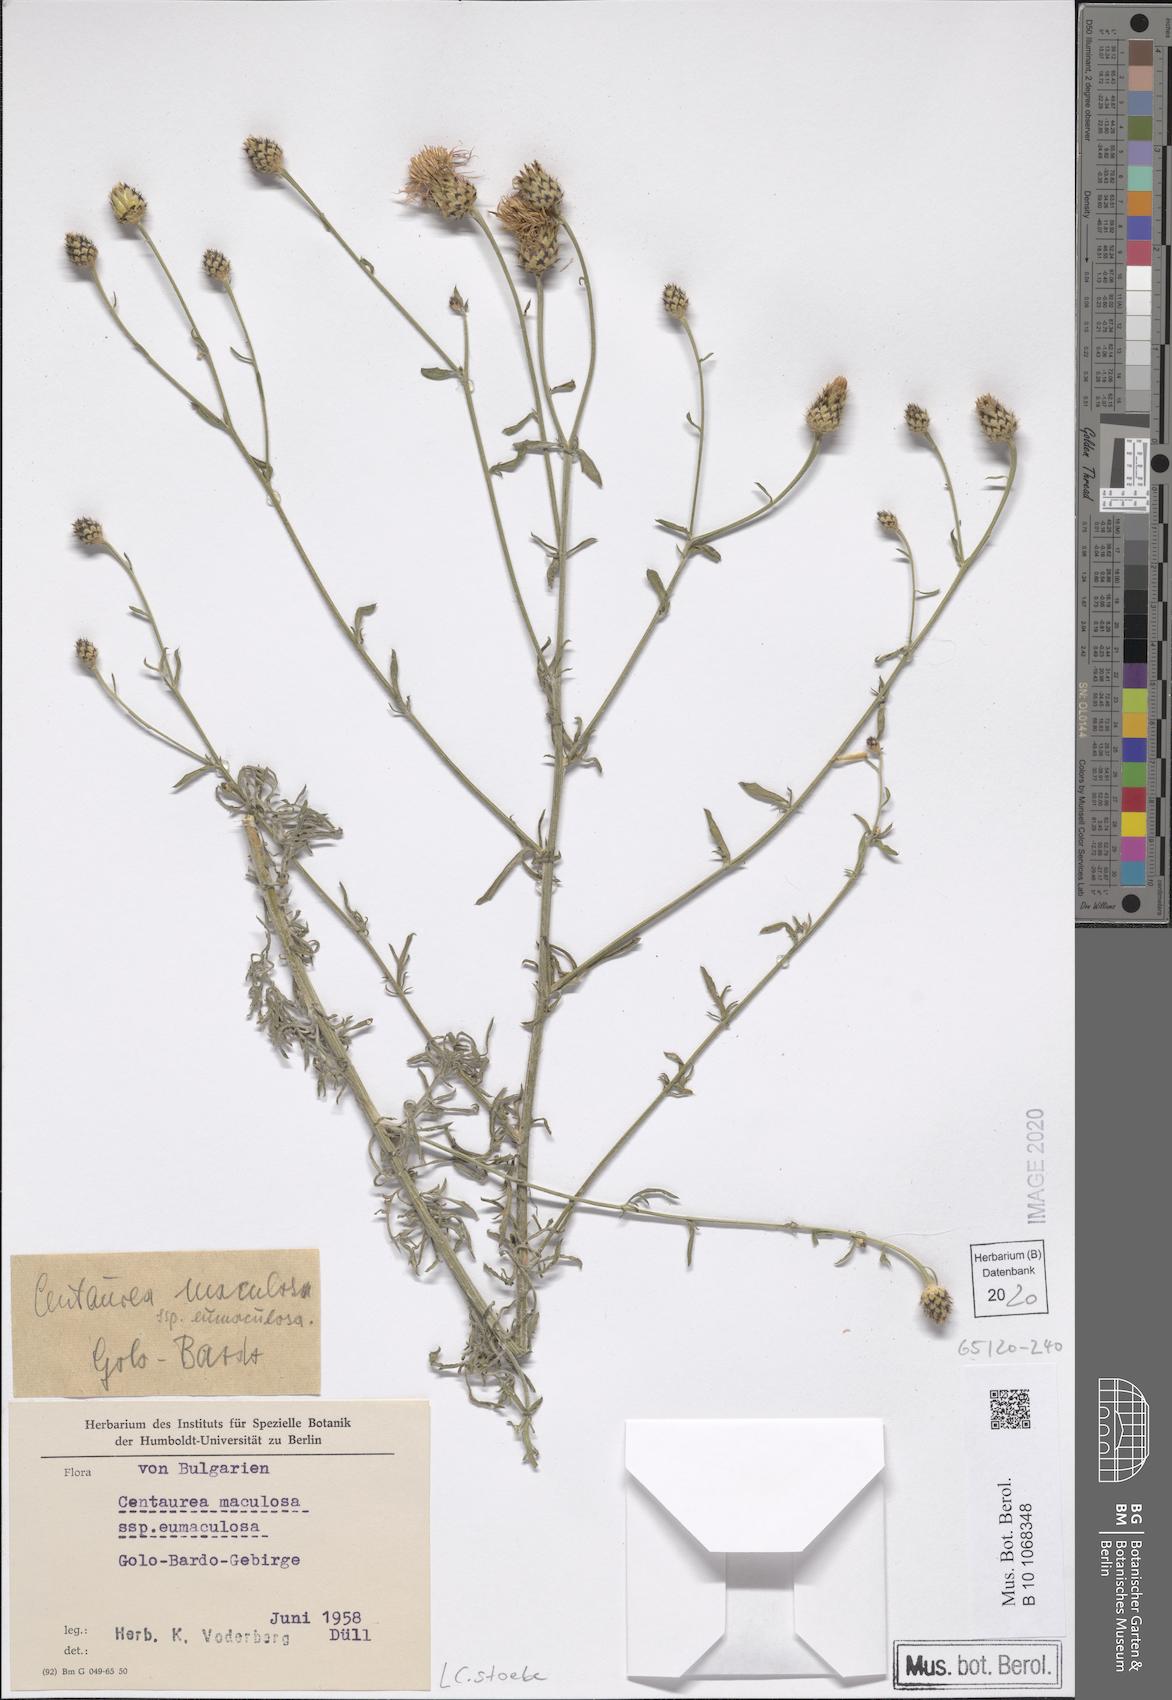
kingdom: Plantae
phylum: Tracheophyta
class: Magnoliopsida
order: Asterales
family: Asteraceae
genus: Centaurea
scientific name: Centaurea stoebe
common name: Spotted knapweed
